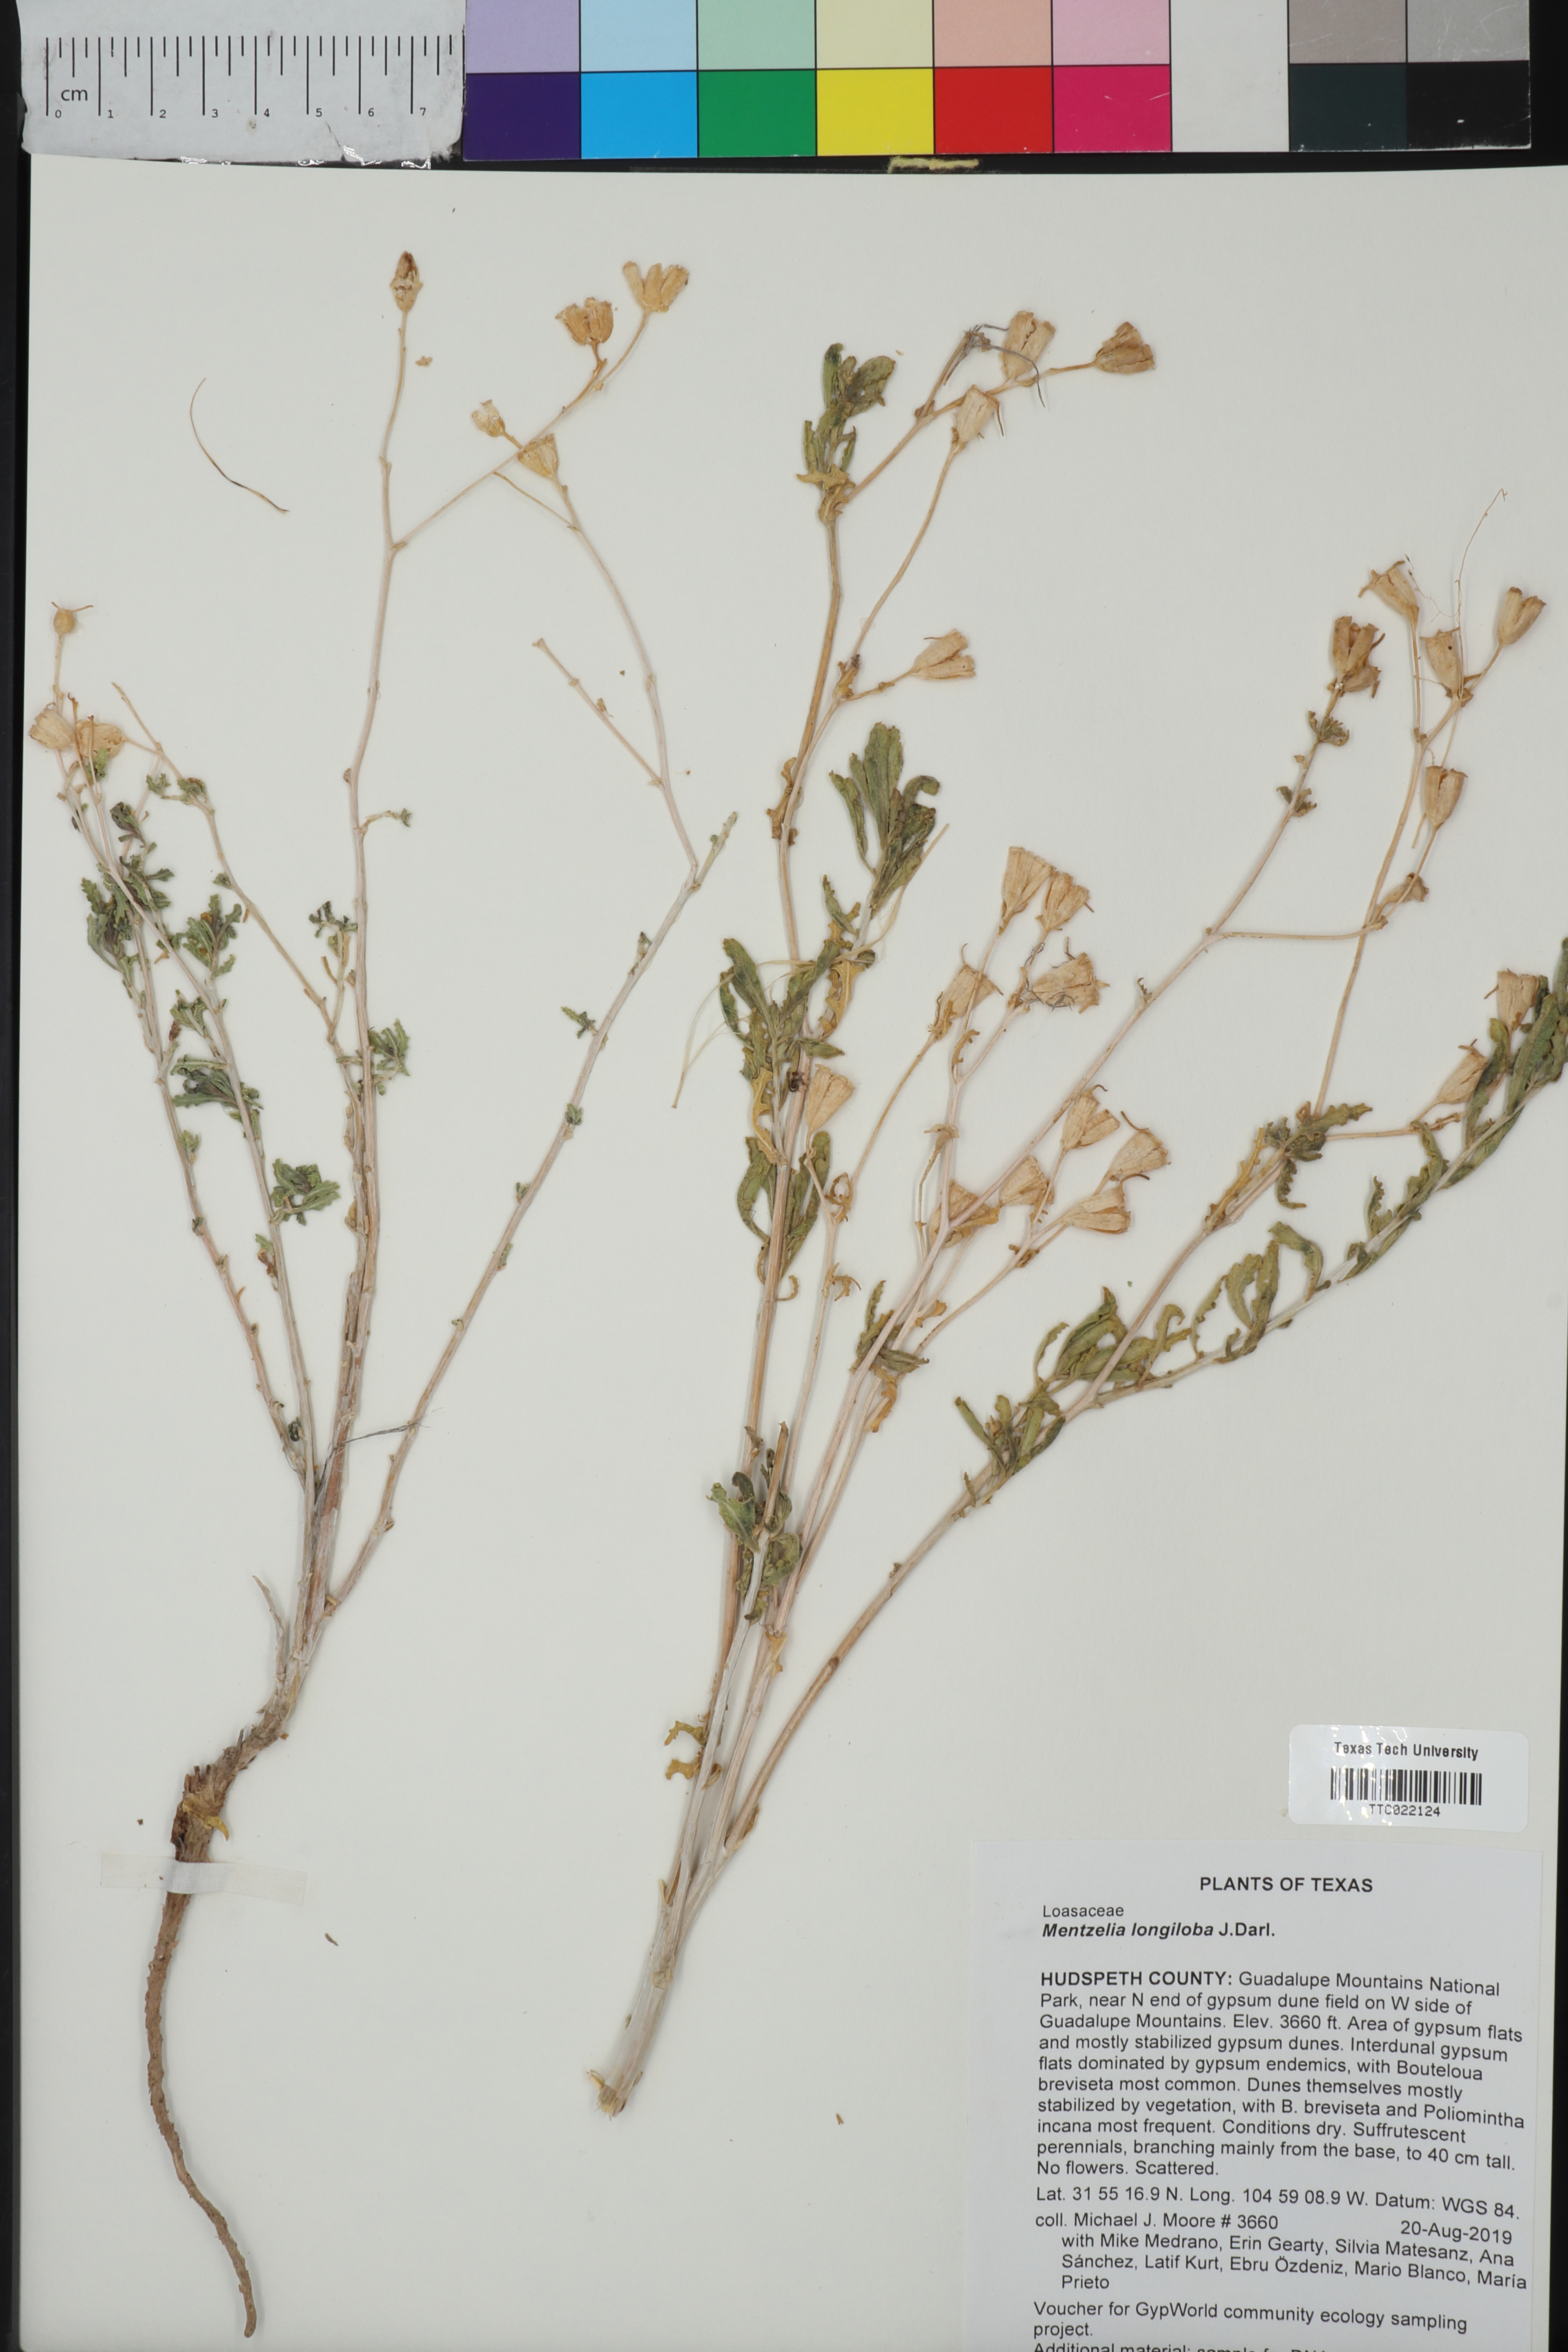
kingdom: Plantae
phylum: Tracheophyta
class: Magnoliopsida
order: Cornales
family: Loasaceae
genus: Mentzelia
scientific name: Mentzelia longiloba
